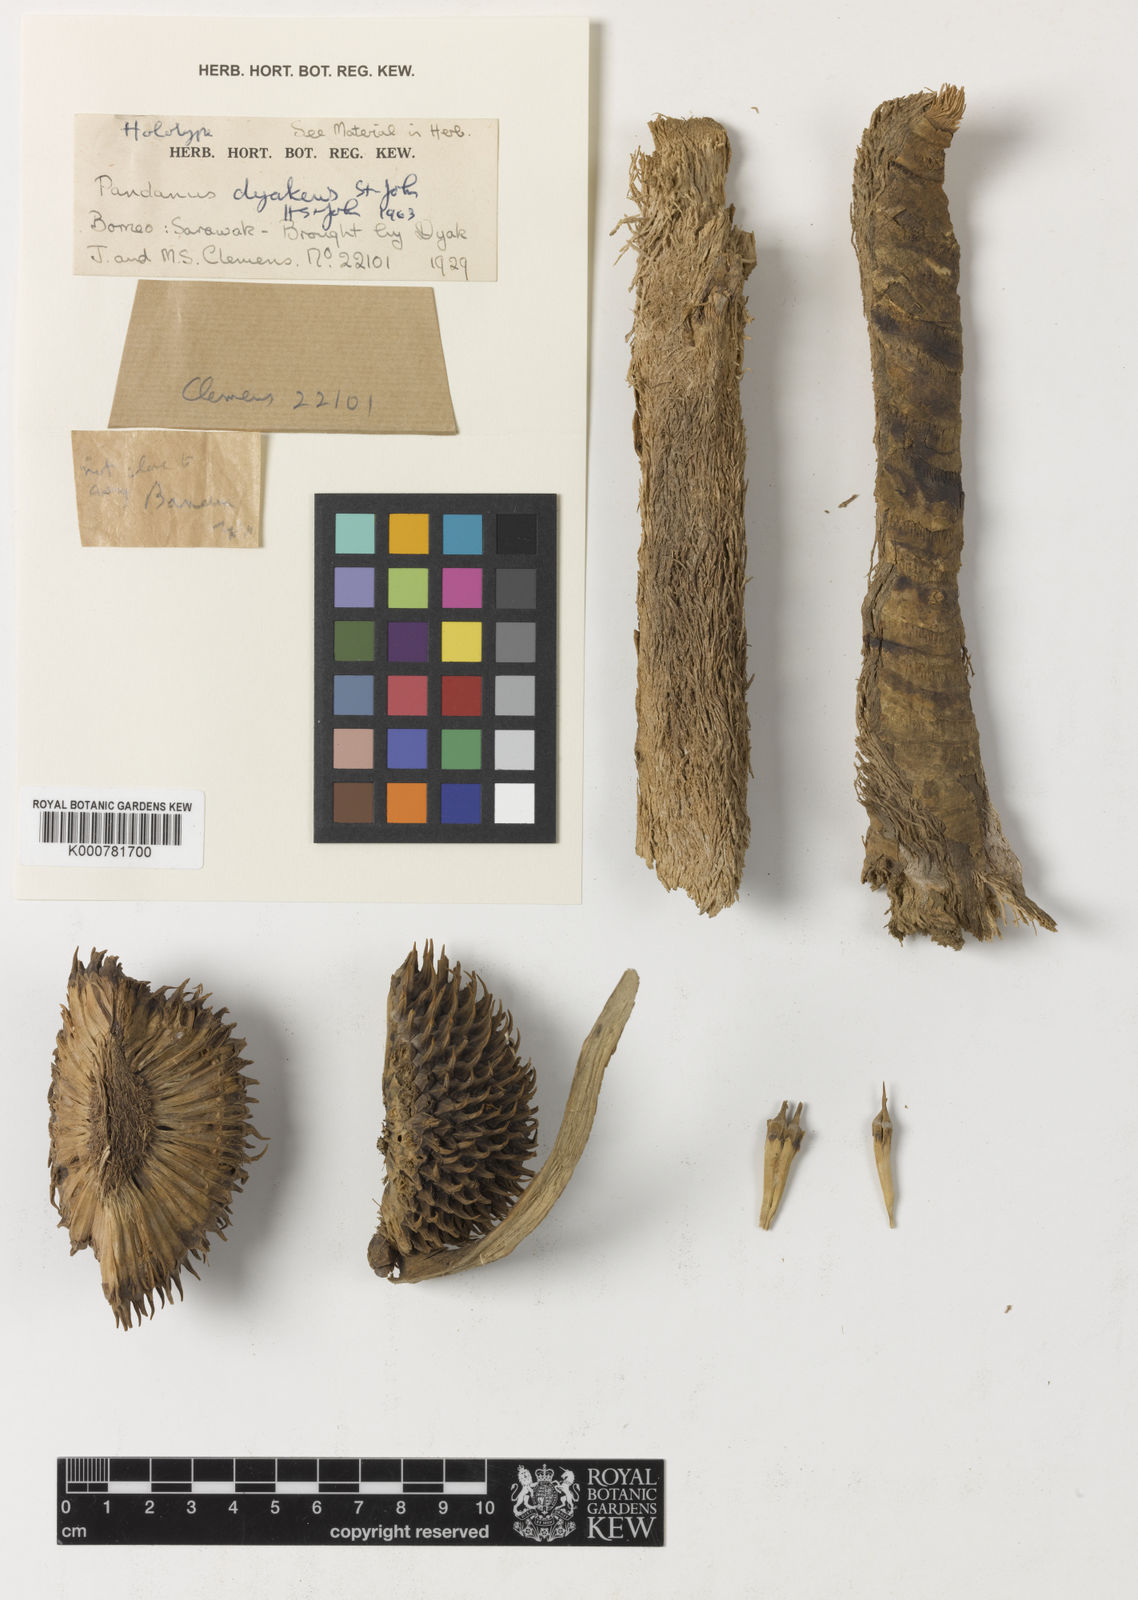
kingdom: Plantae
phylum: Tracheophyta
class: Liliopsida
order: Pandanales
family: Pandanaceae
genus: Pandanus
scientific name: Pandanus
